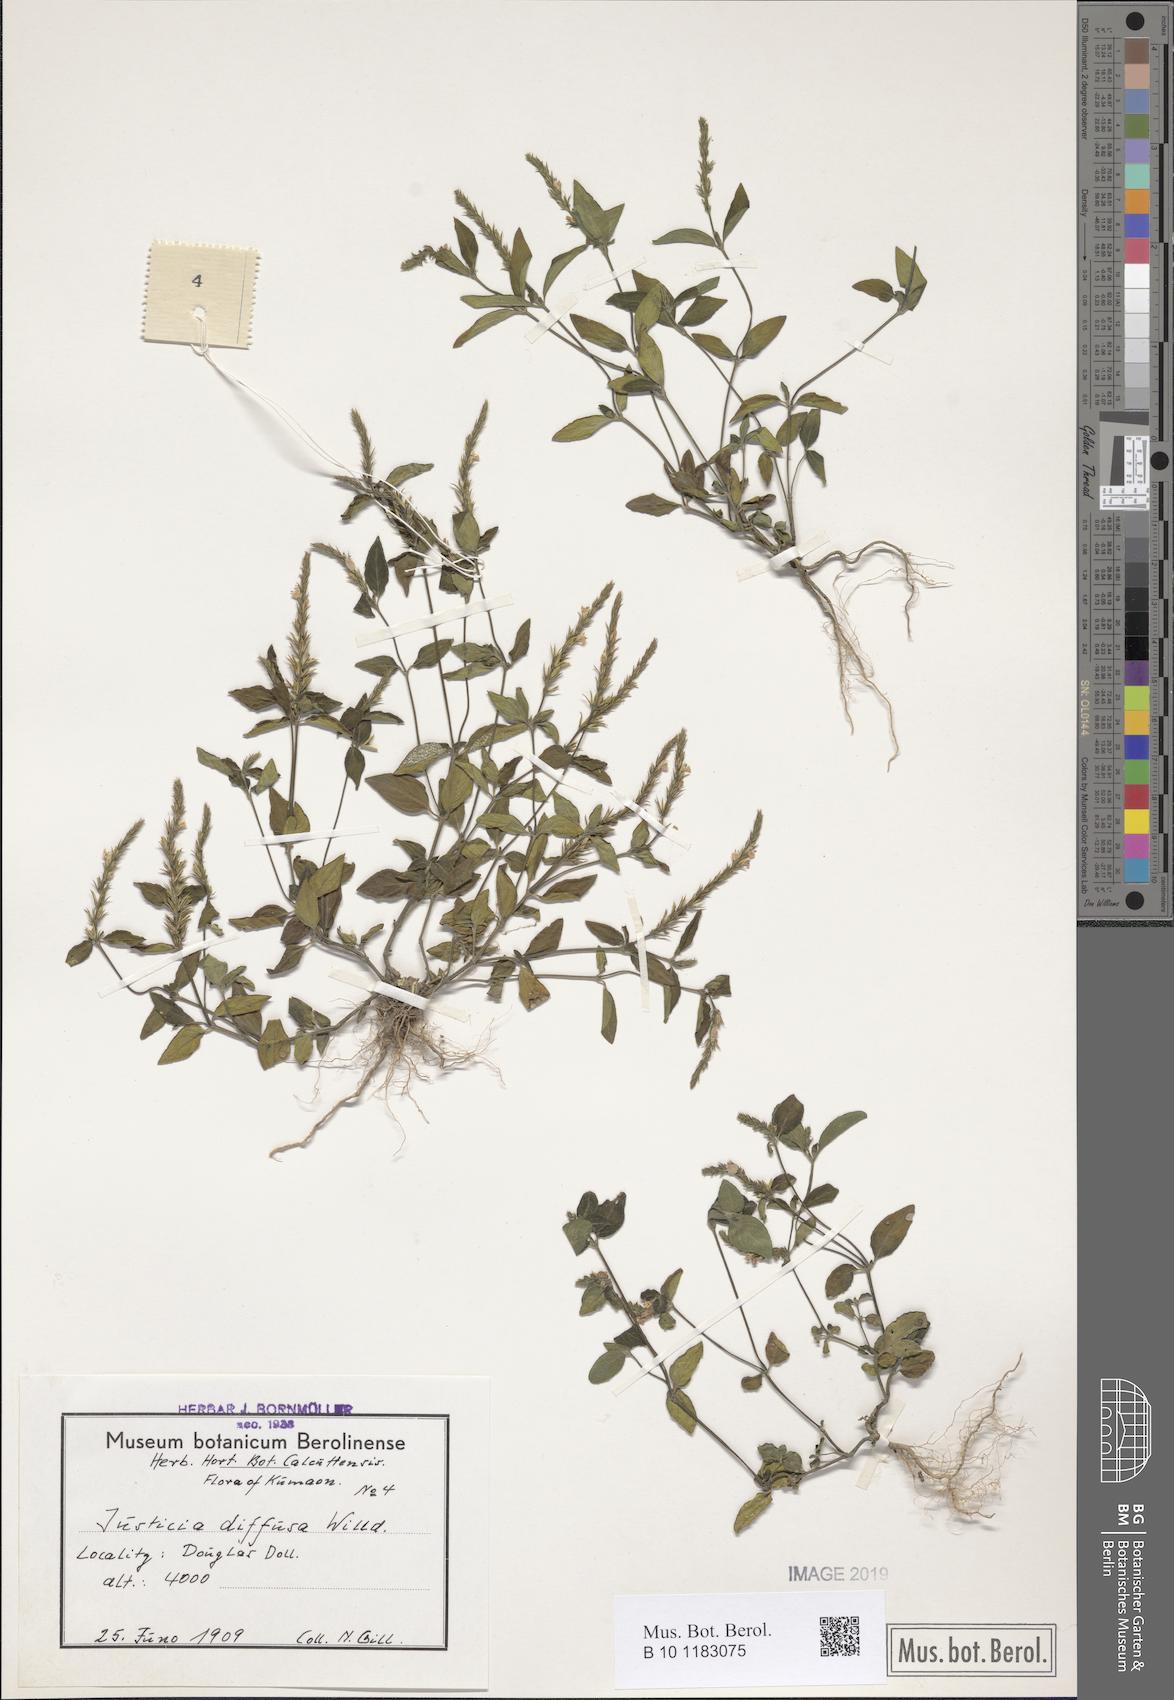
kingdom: Plantae
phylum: Tracheophyta
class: Magnoliopsida
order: Lamiales
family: Acanthaceae
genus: Rostellularia
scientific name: Rostellularia diffusa
